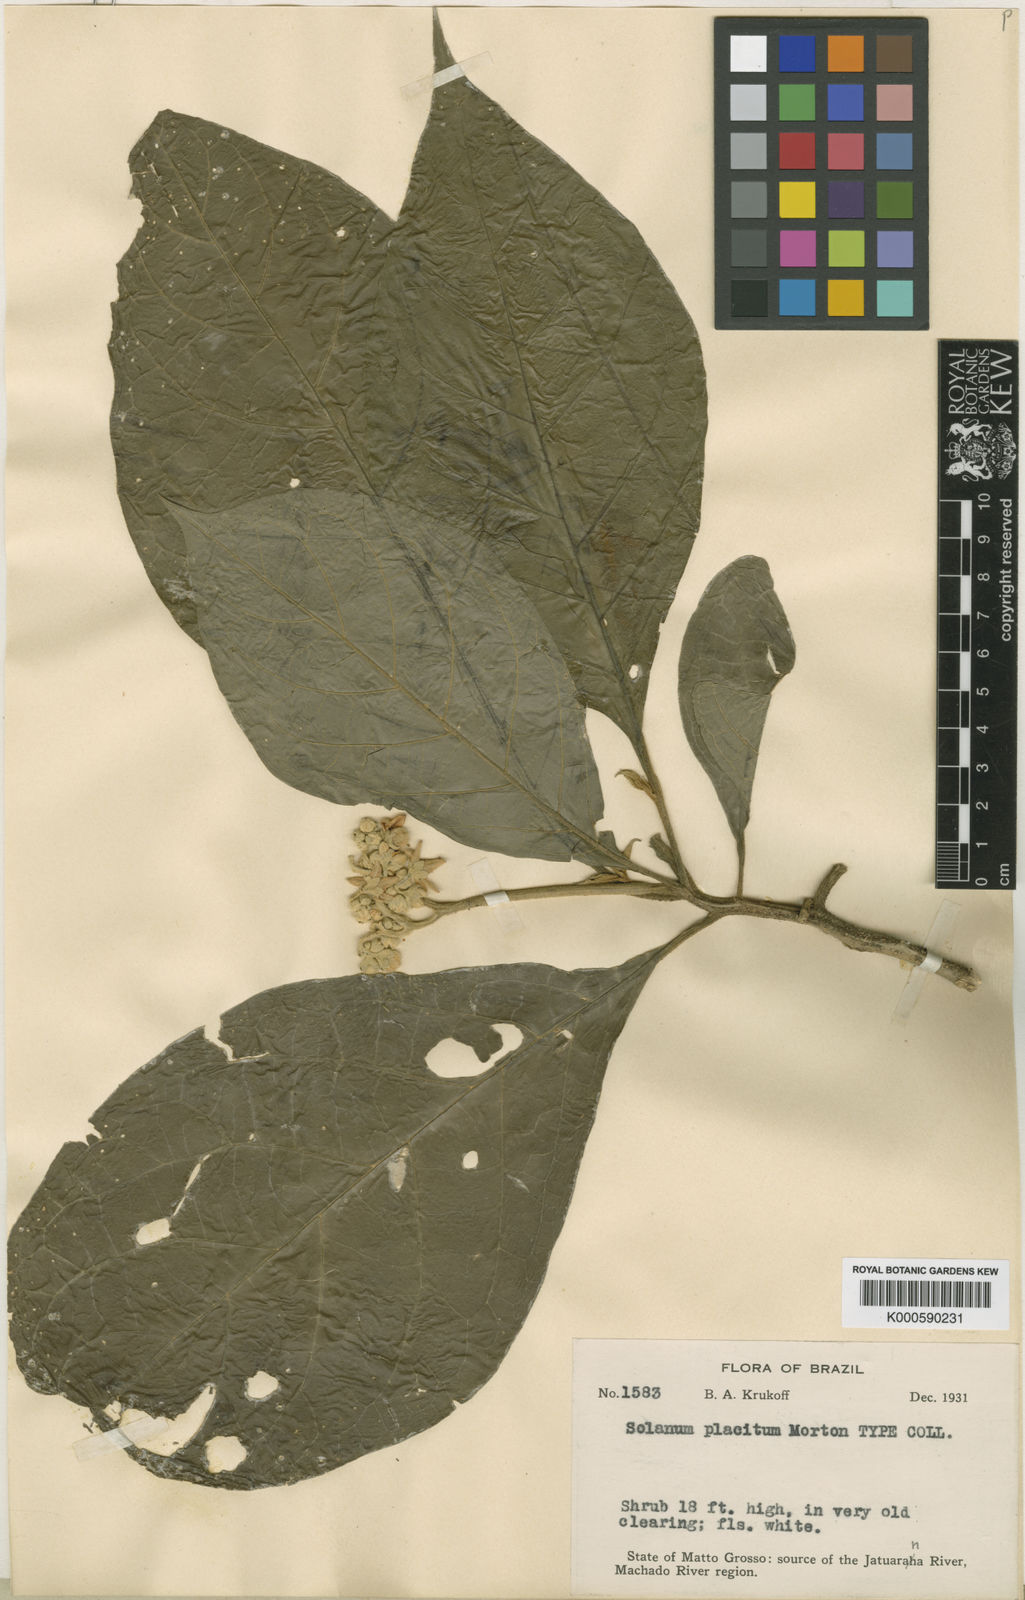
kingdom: Plantae
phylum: Tracheophyta
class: Magnoliopsida
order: Solanales
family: Solanaceae
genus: Solanum
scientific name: Solanum placitum
